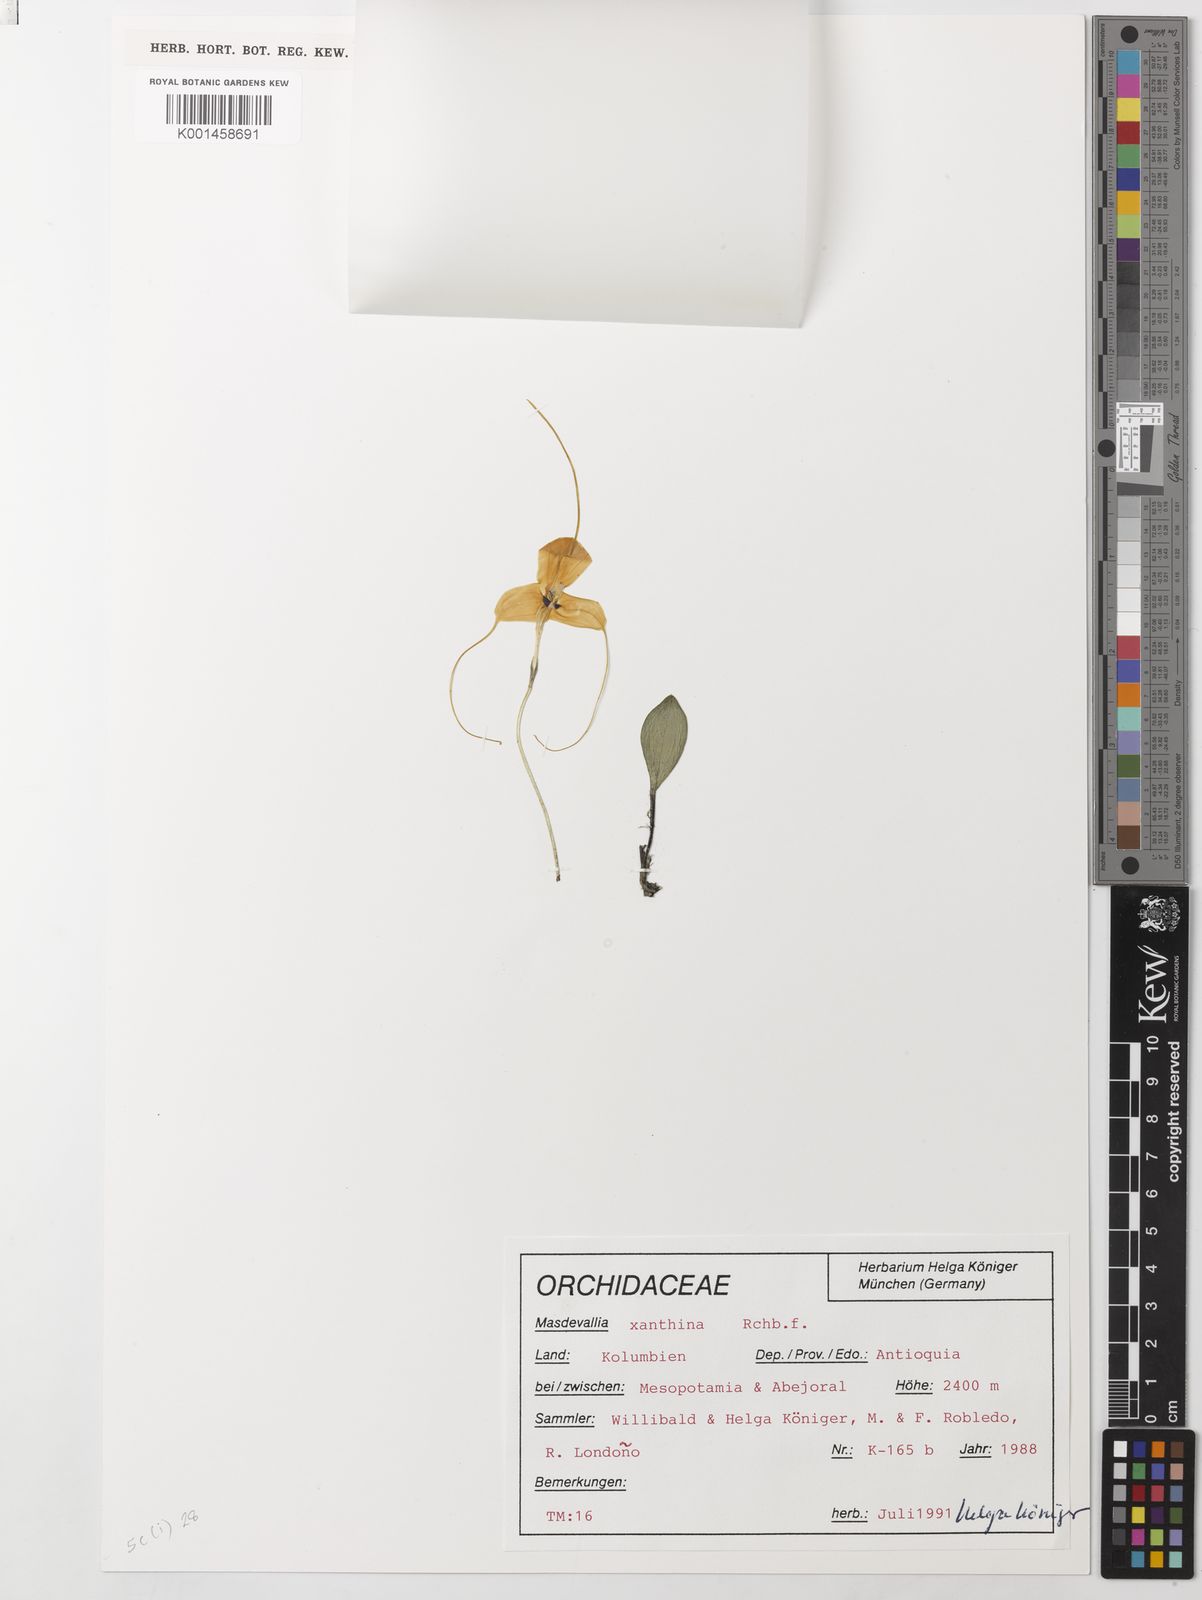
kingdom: Plantae
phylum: Tracheophyta
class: Liliopsida
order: Asparagales
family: Orchidaceae
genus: Masdevallia
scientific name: Masdevallia xanthina
